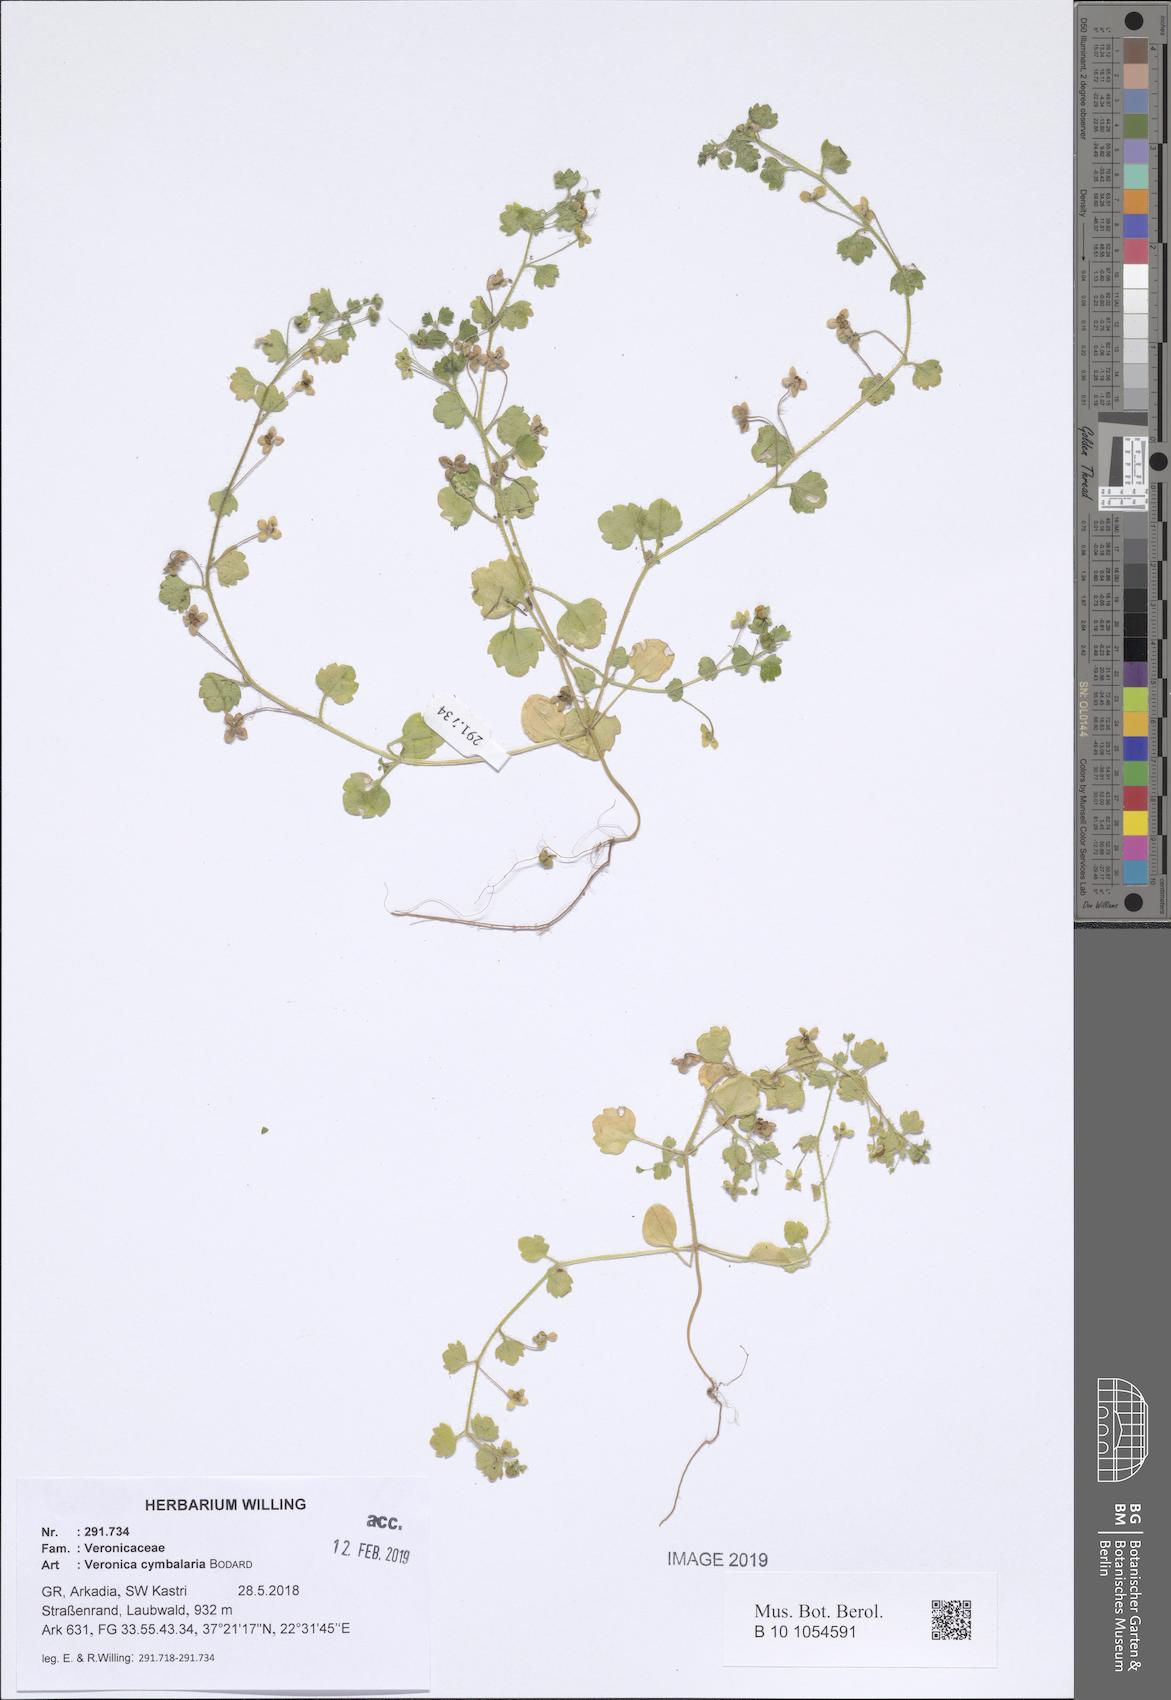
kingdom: Plantae
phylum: Tracheophyta
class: Magnoliopsida
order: Lamiales
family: Plantaginaceae
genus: Veronica
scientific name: Veronica cymbalaria
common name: Pale speedwell
